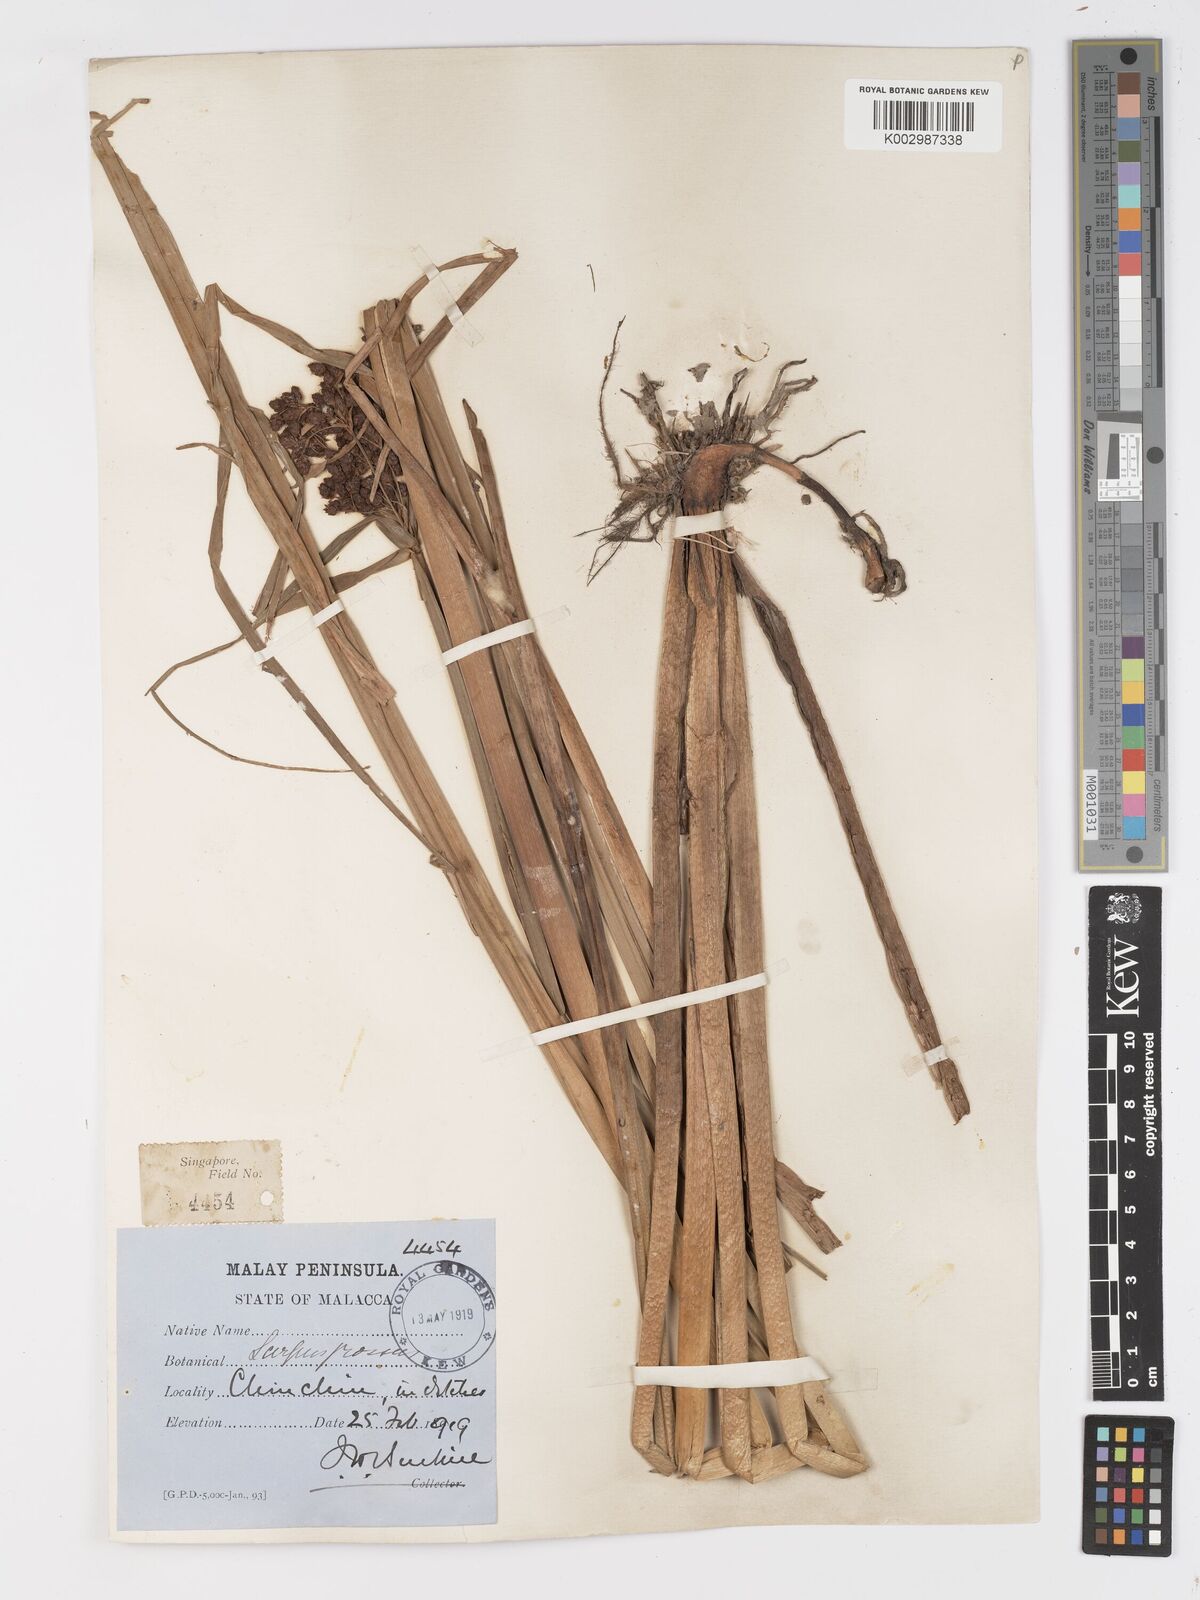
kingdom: Plantae
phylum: Tracheophyta
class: Liliopsida
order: Poales
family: Cyperaceae
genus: Actinoscirpus
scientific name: Actinoscirpus grossus
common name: Giant bur rush
